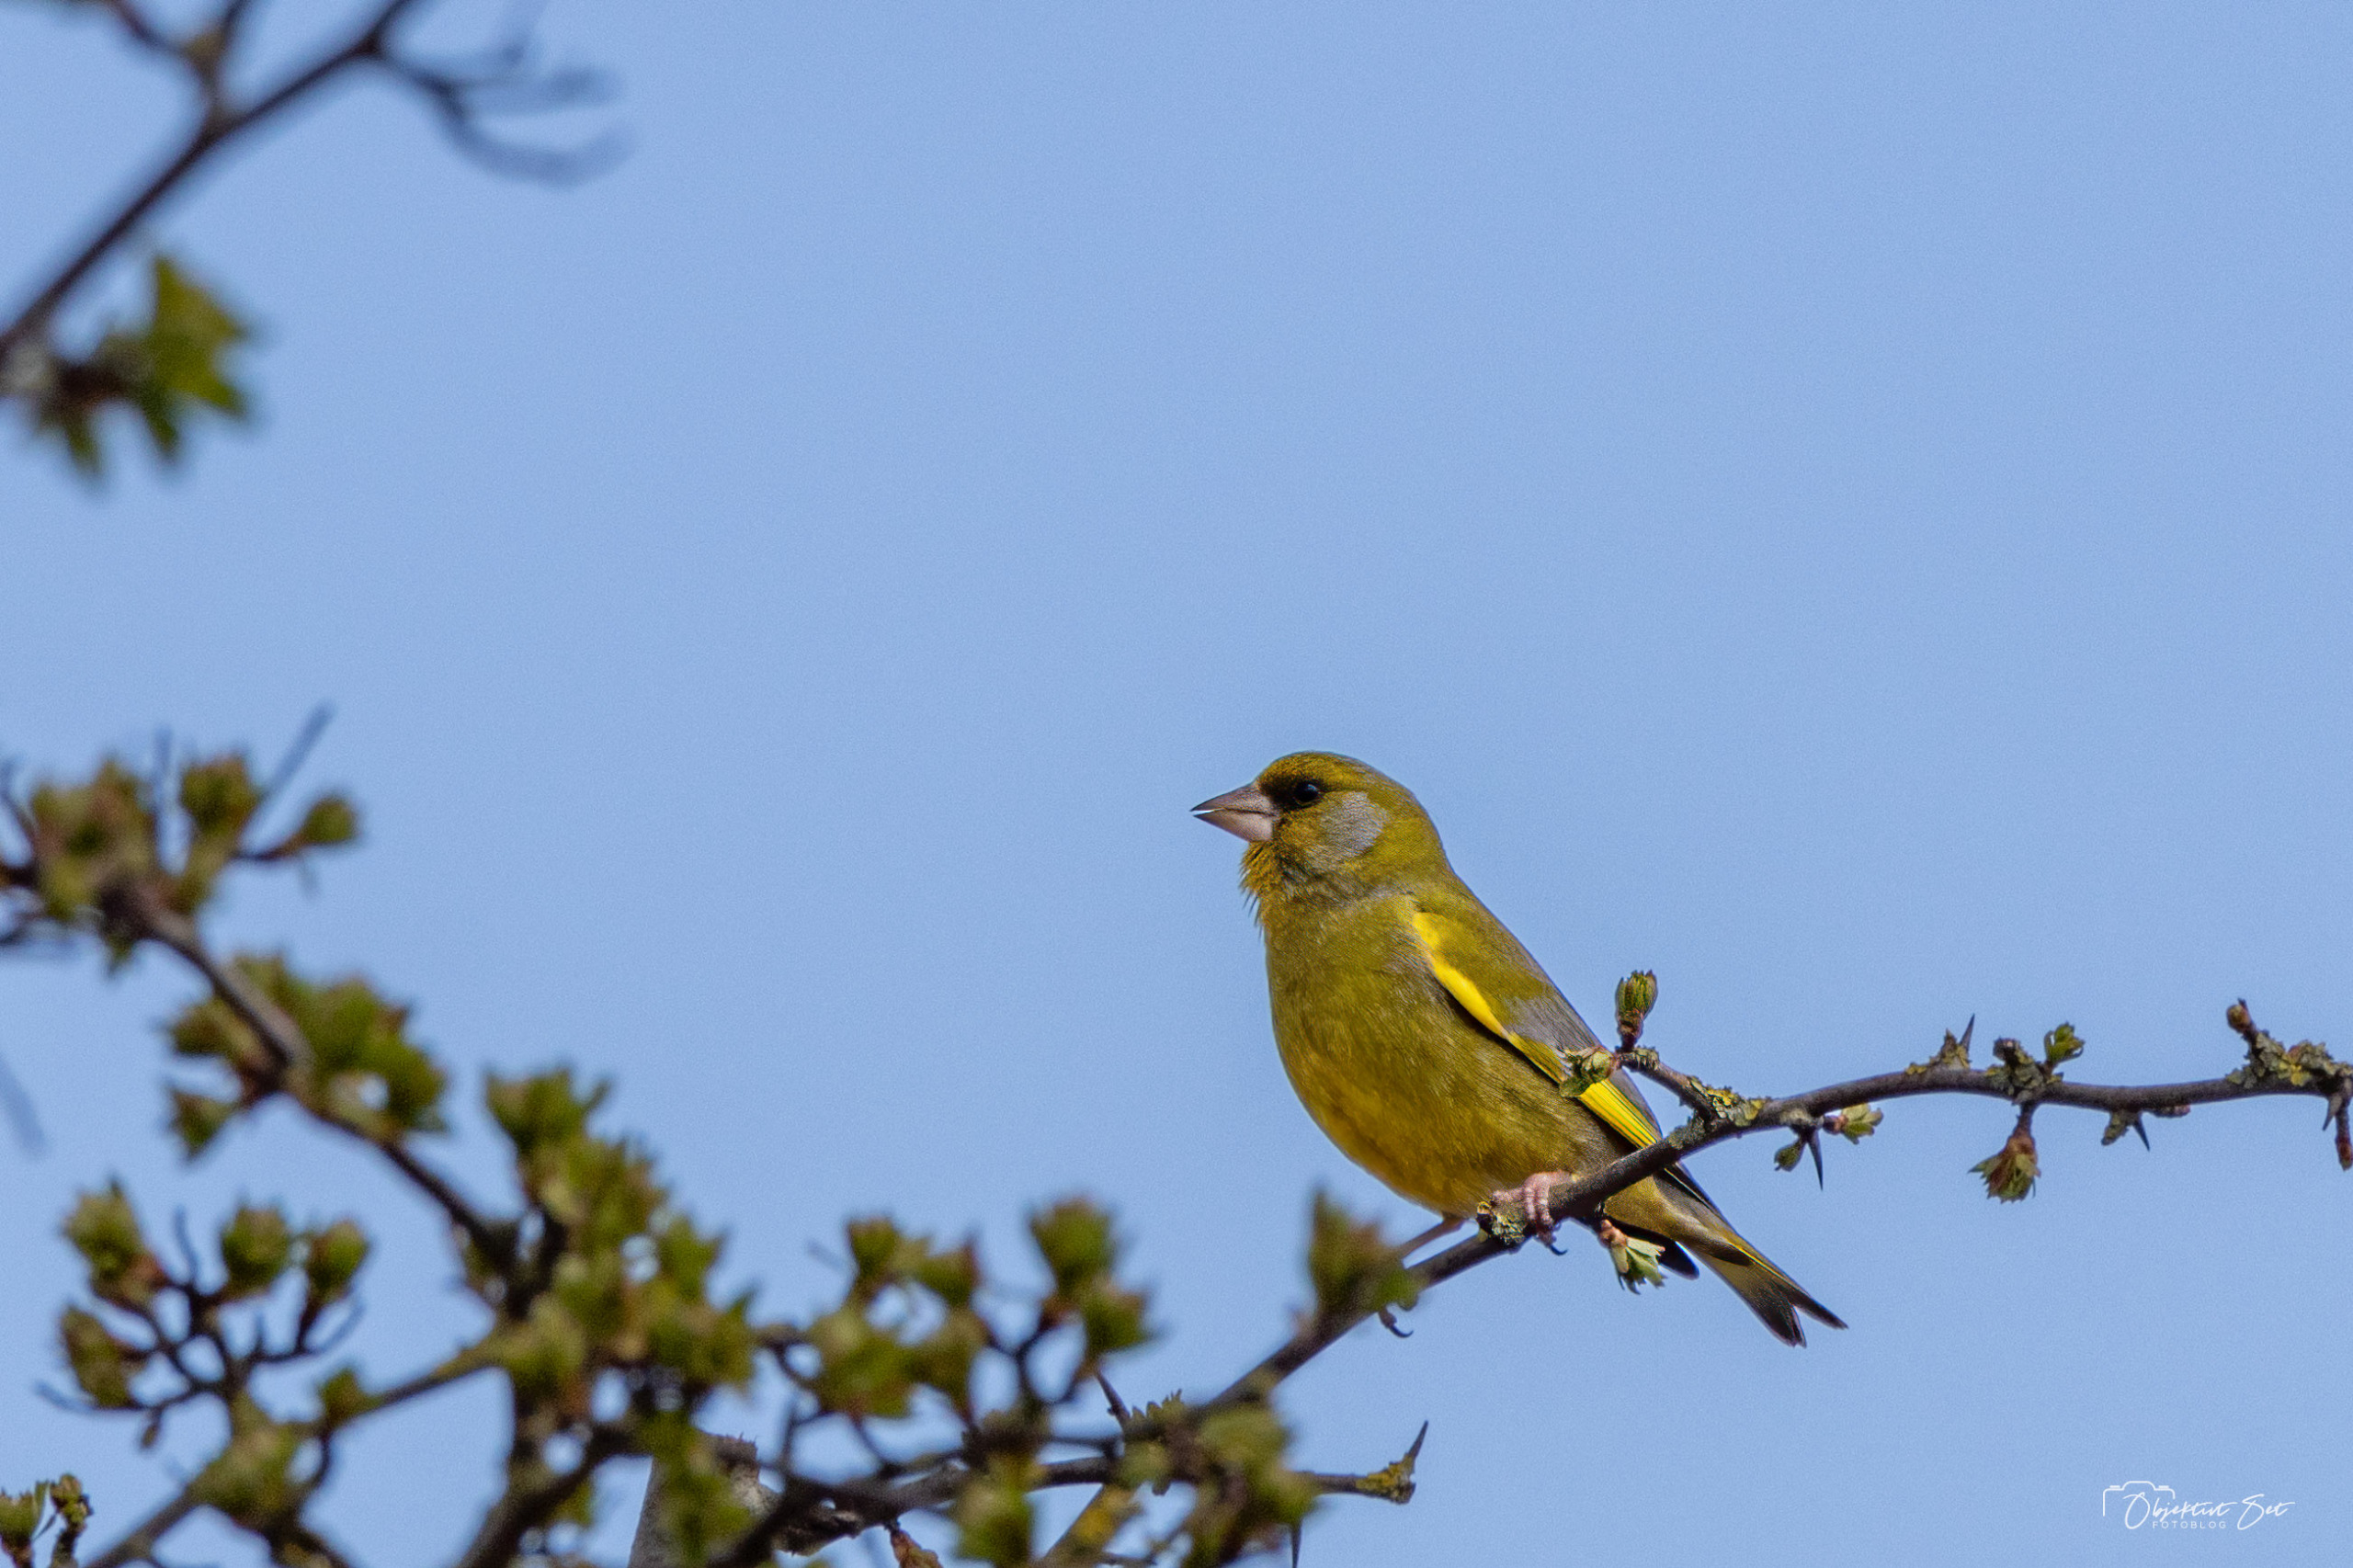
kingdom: Plantae
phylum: Tracheophyta
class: Liliopsida
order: Poales
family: Poaceae
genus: Chloris
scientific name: Chloris chloris
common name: Grønirisk
